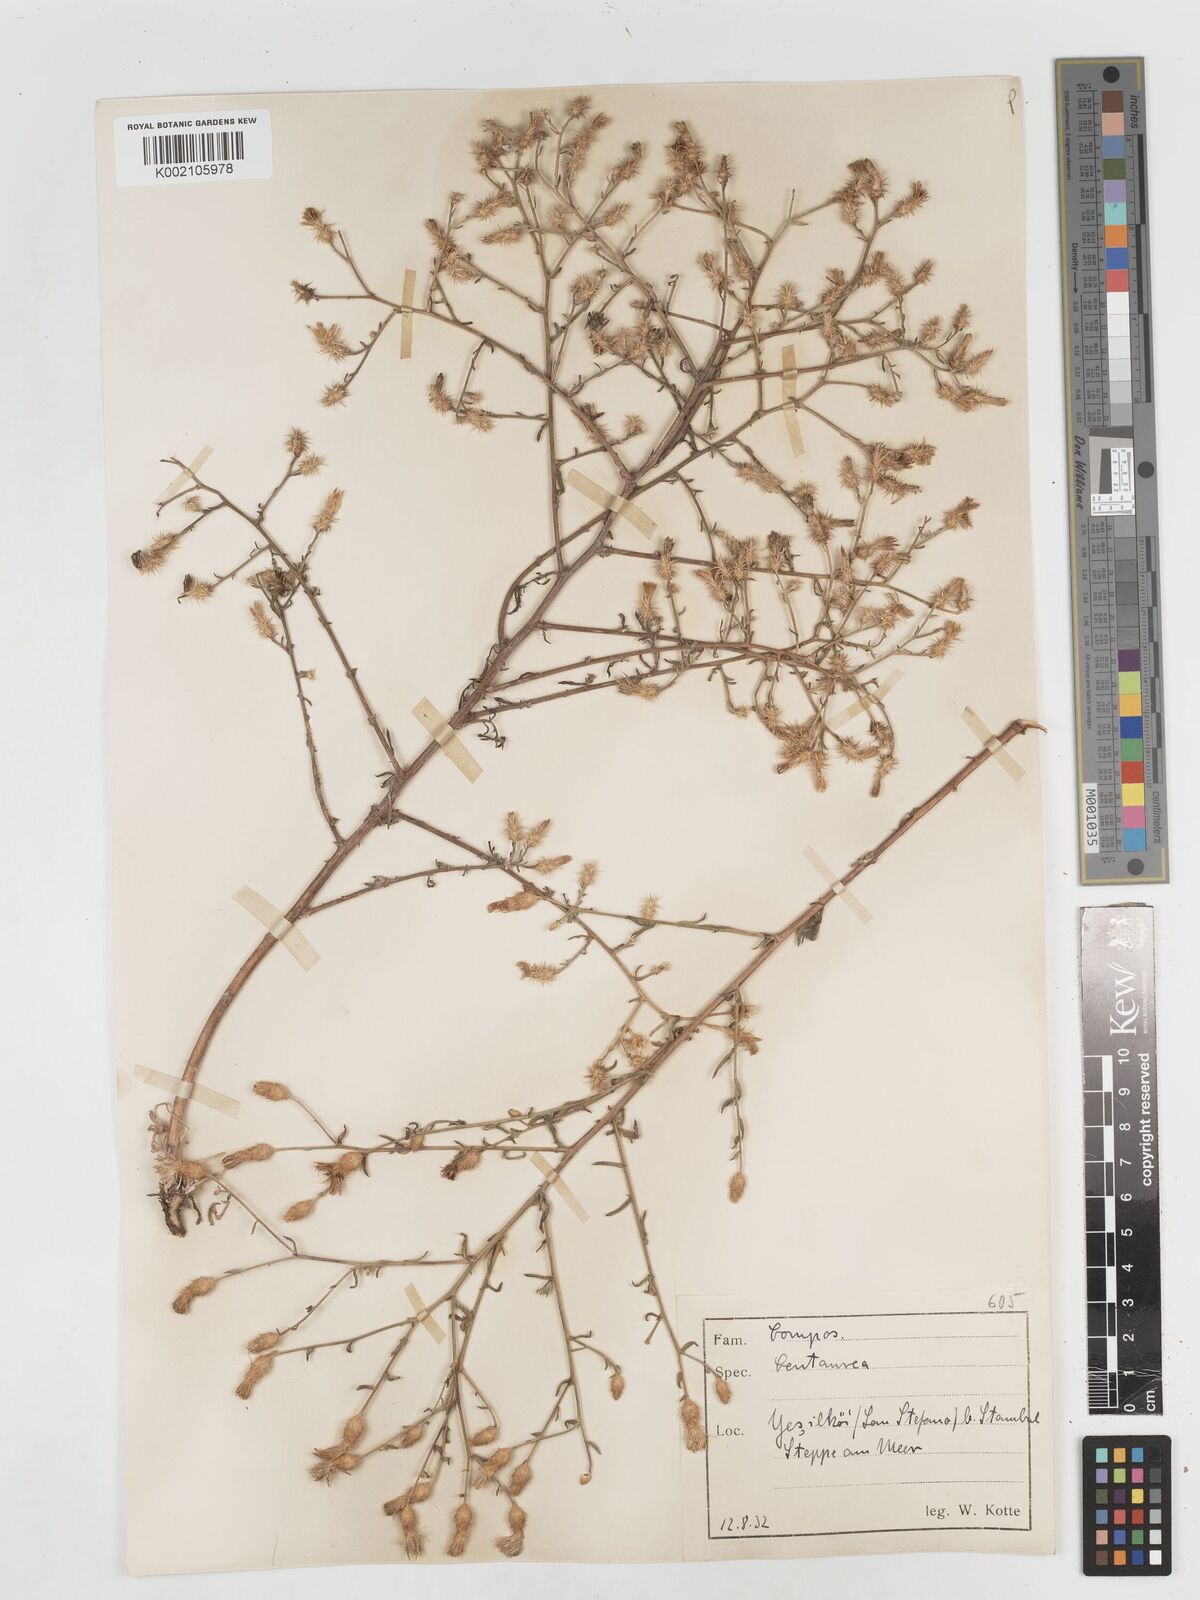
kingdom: Plantae
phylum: Tracheophyta
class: Magnoliopsida
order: Asterales
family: Asteraceae
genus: Centaurea
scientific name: Centaurea
